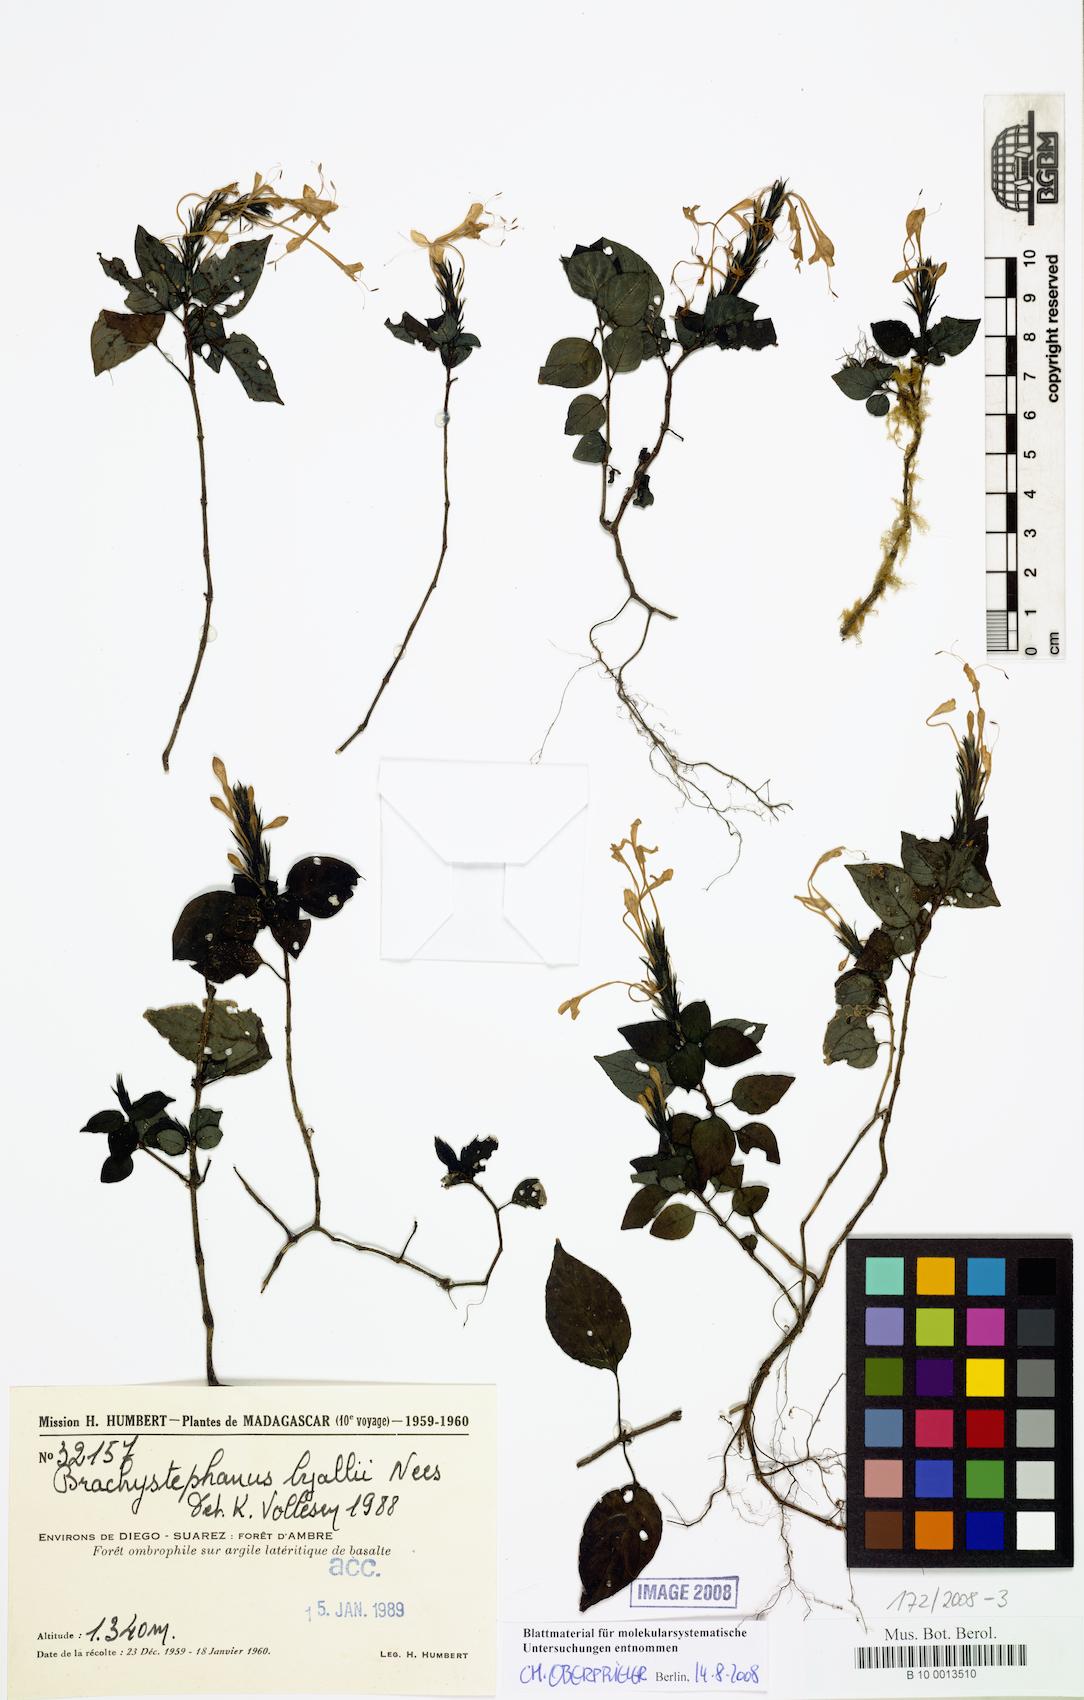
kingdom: Plantae
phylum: Tracheophyta
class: Magnoliopsida
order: Lamiales
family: Acanthaceae
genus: Brachystephanus
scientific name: Brachystephanus lyallii
